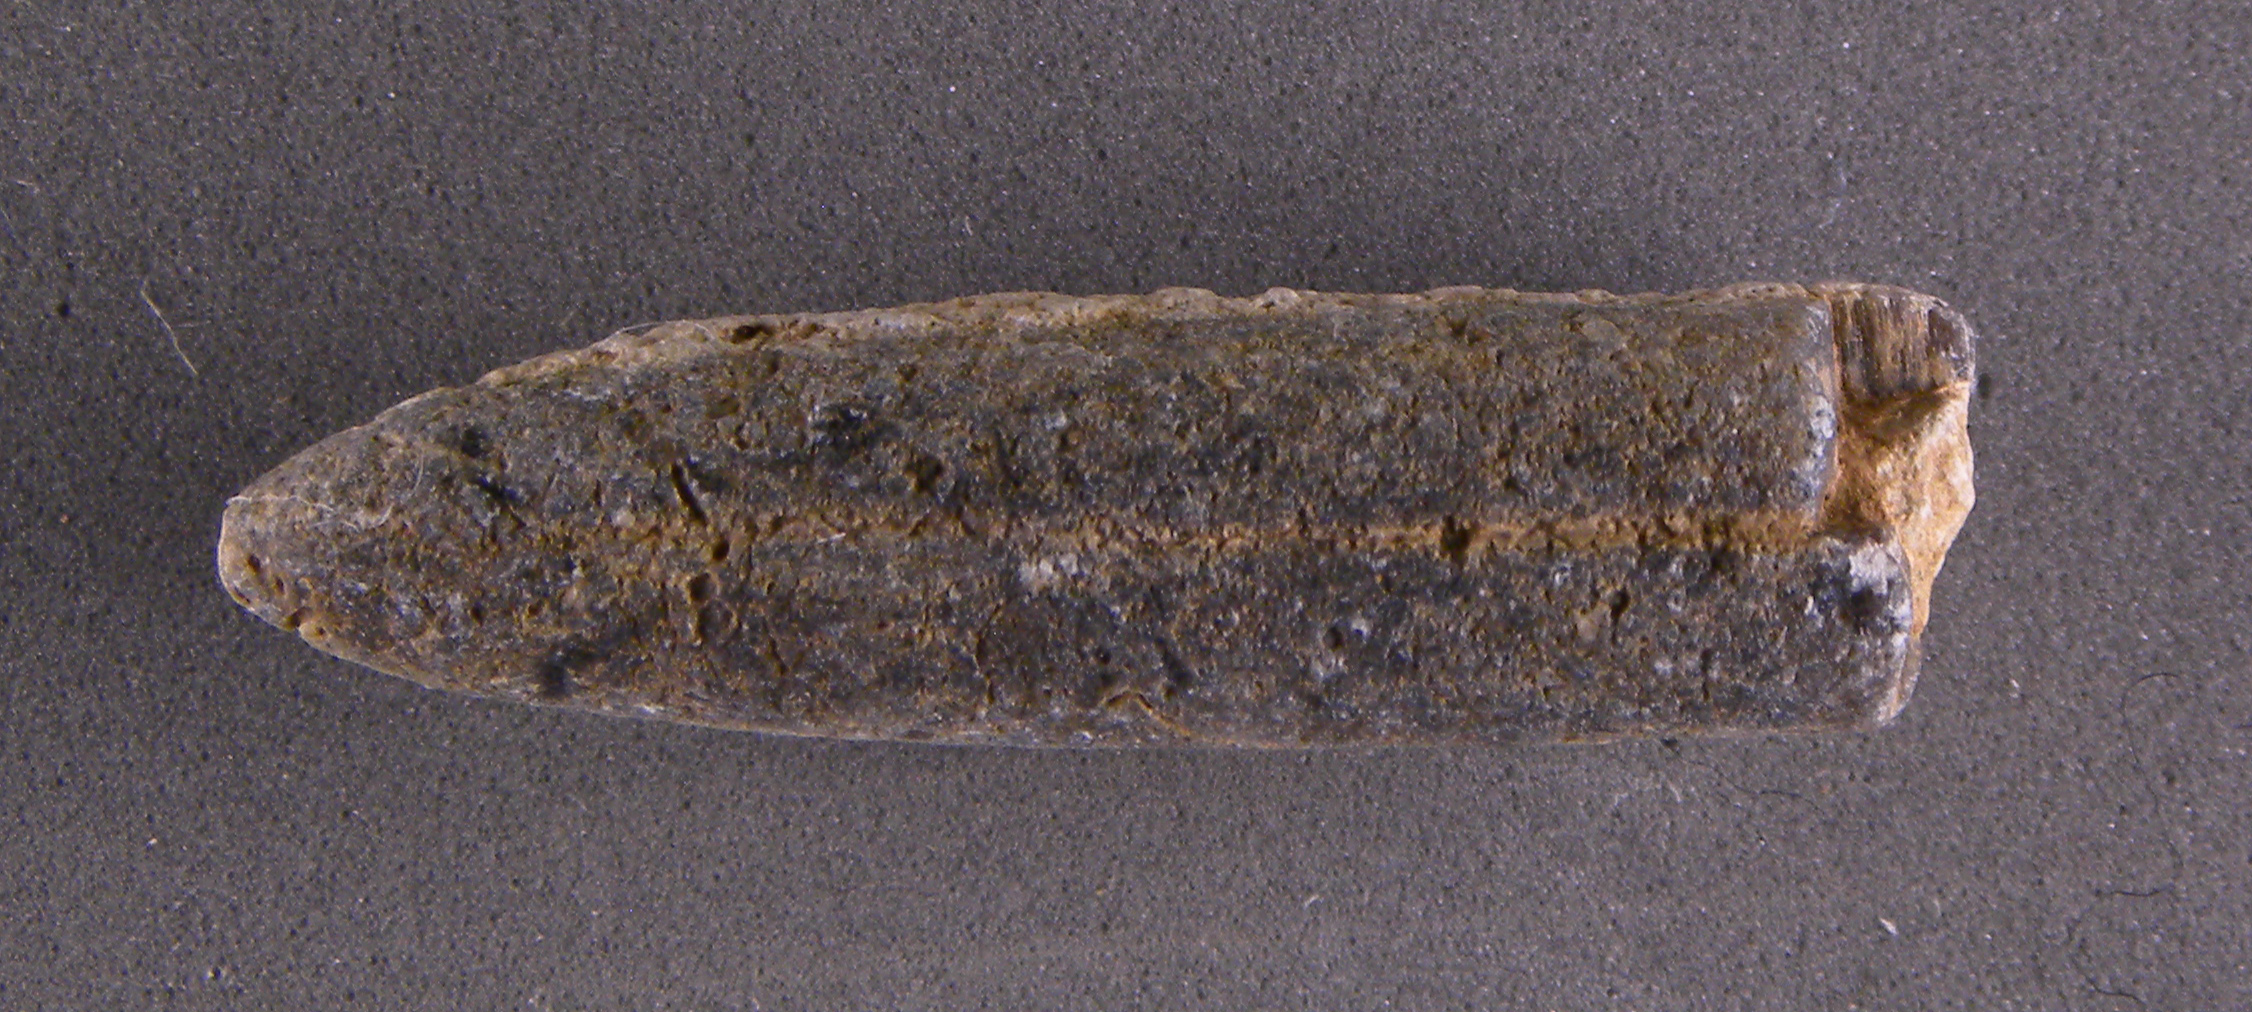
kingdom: Animalia
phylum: Mollusca
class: Cephalopoda
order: Belemnitida
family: Holcobelidae
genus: Calabribelus
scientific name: Calabribelus
